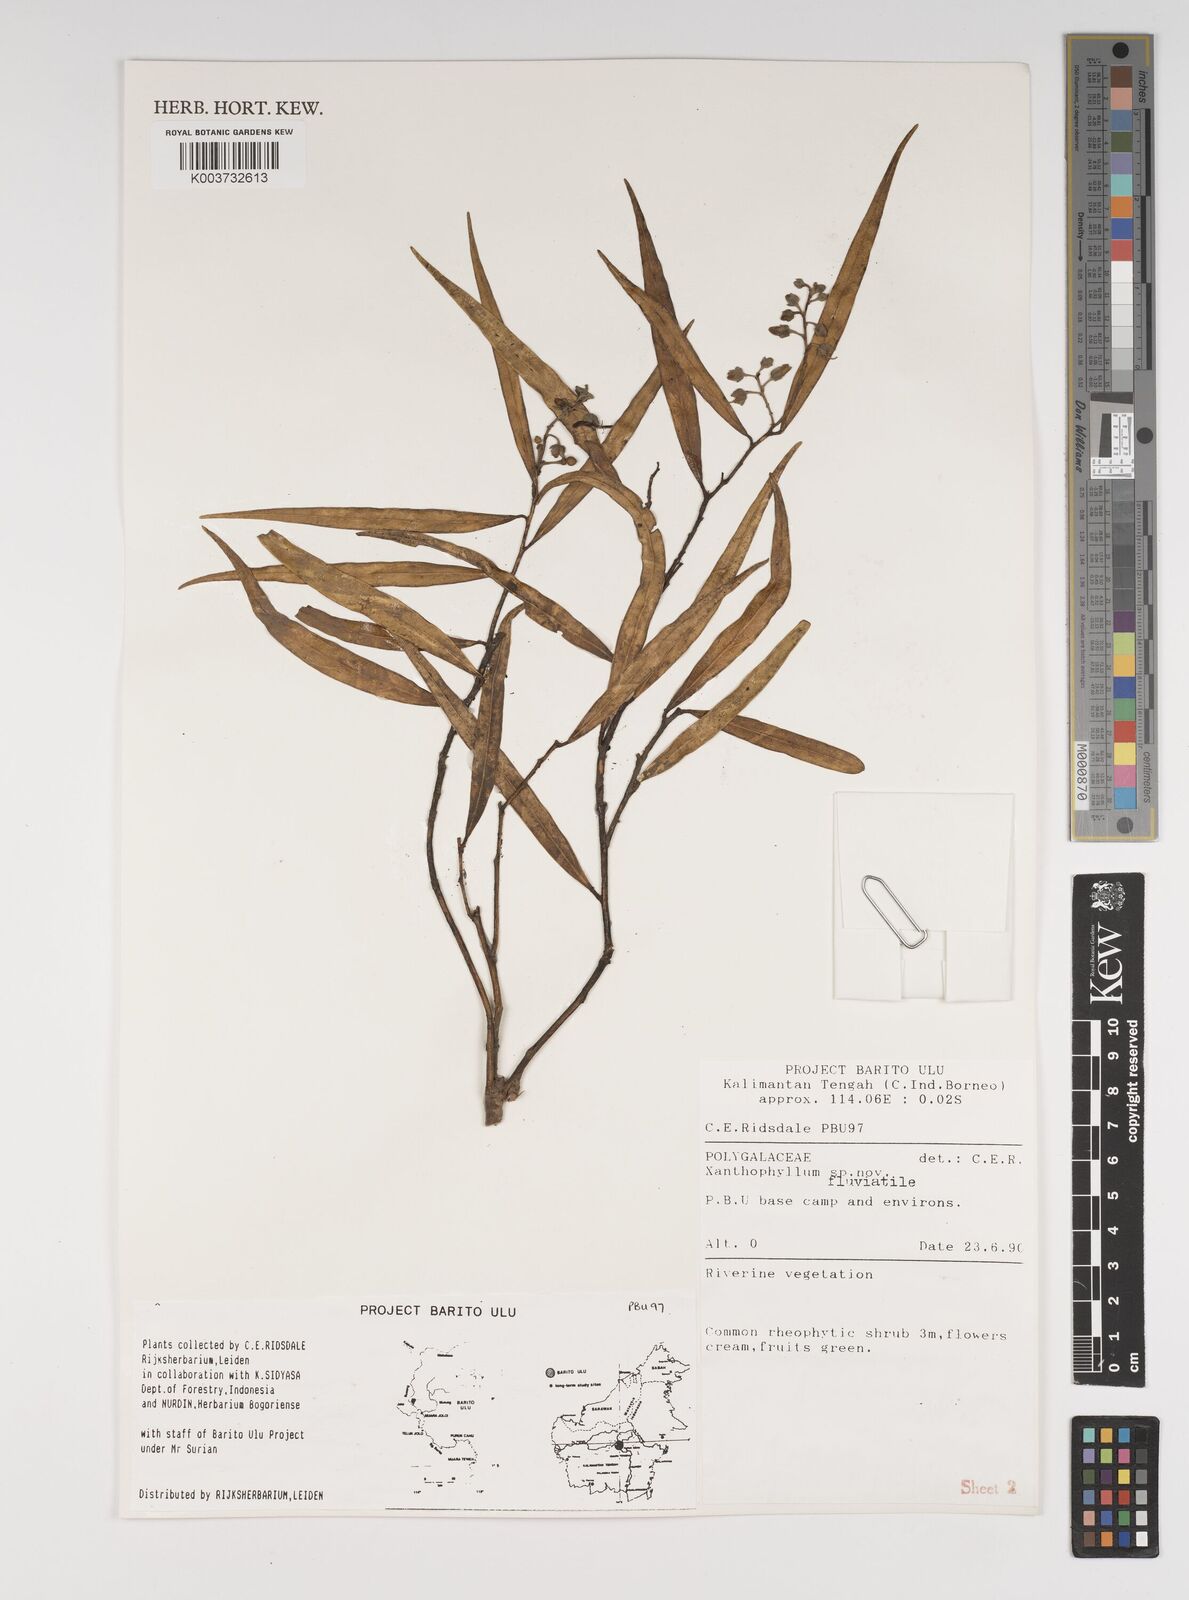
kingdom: Plantae
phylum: Tracheophyta
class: Magnoliopsida
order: Fabales
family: Polygalaceae
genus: Xanthophyllum
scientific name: Xanthophyllum
